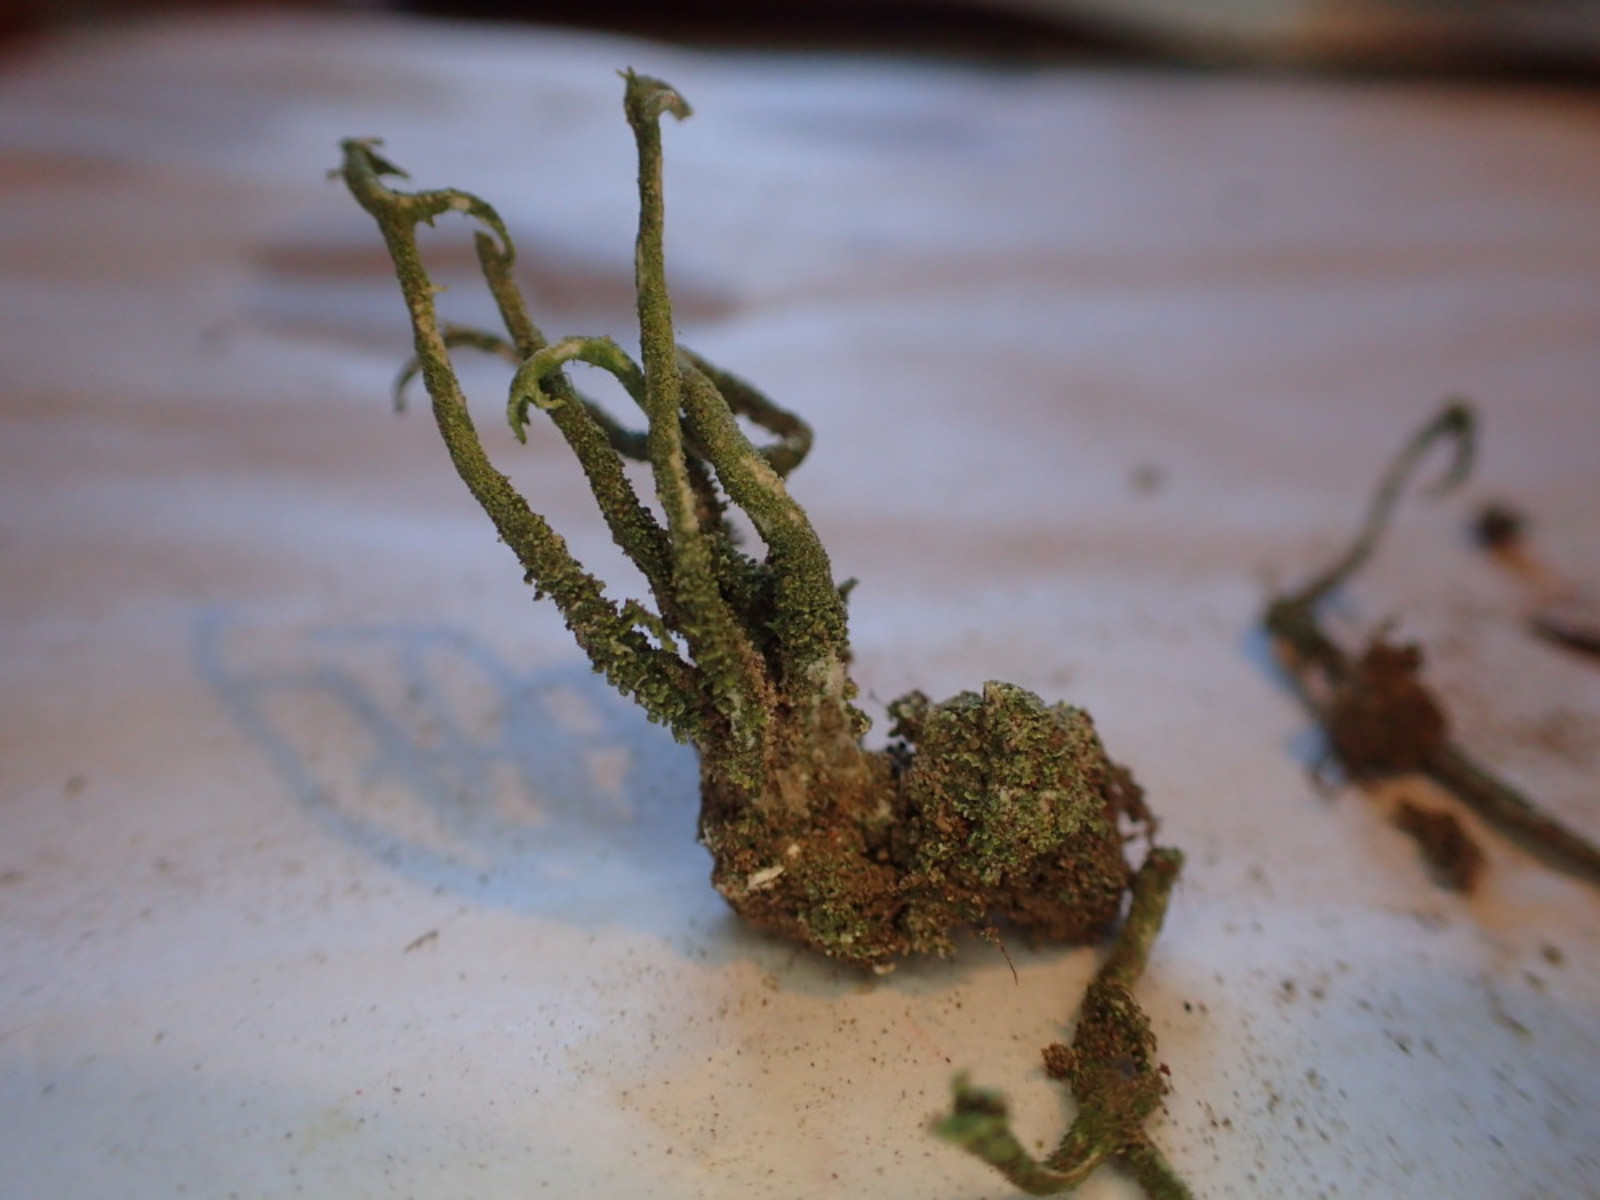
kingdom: Fungi
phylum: Ascomycota
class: Lecanoromycetes
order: Lecanorales
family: Cladoniaceae
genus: Cladonia
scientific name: Cladonia glauca
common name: grågrøn bægerlav
